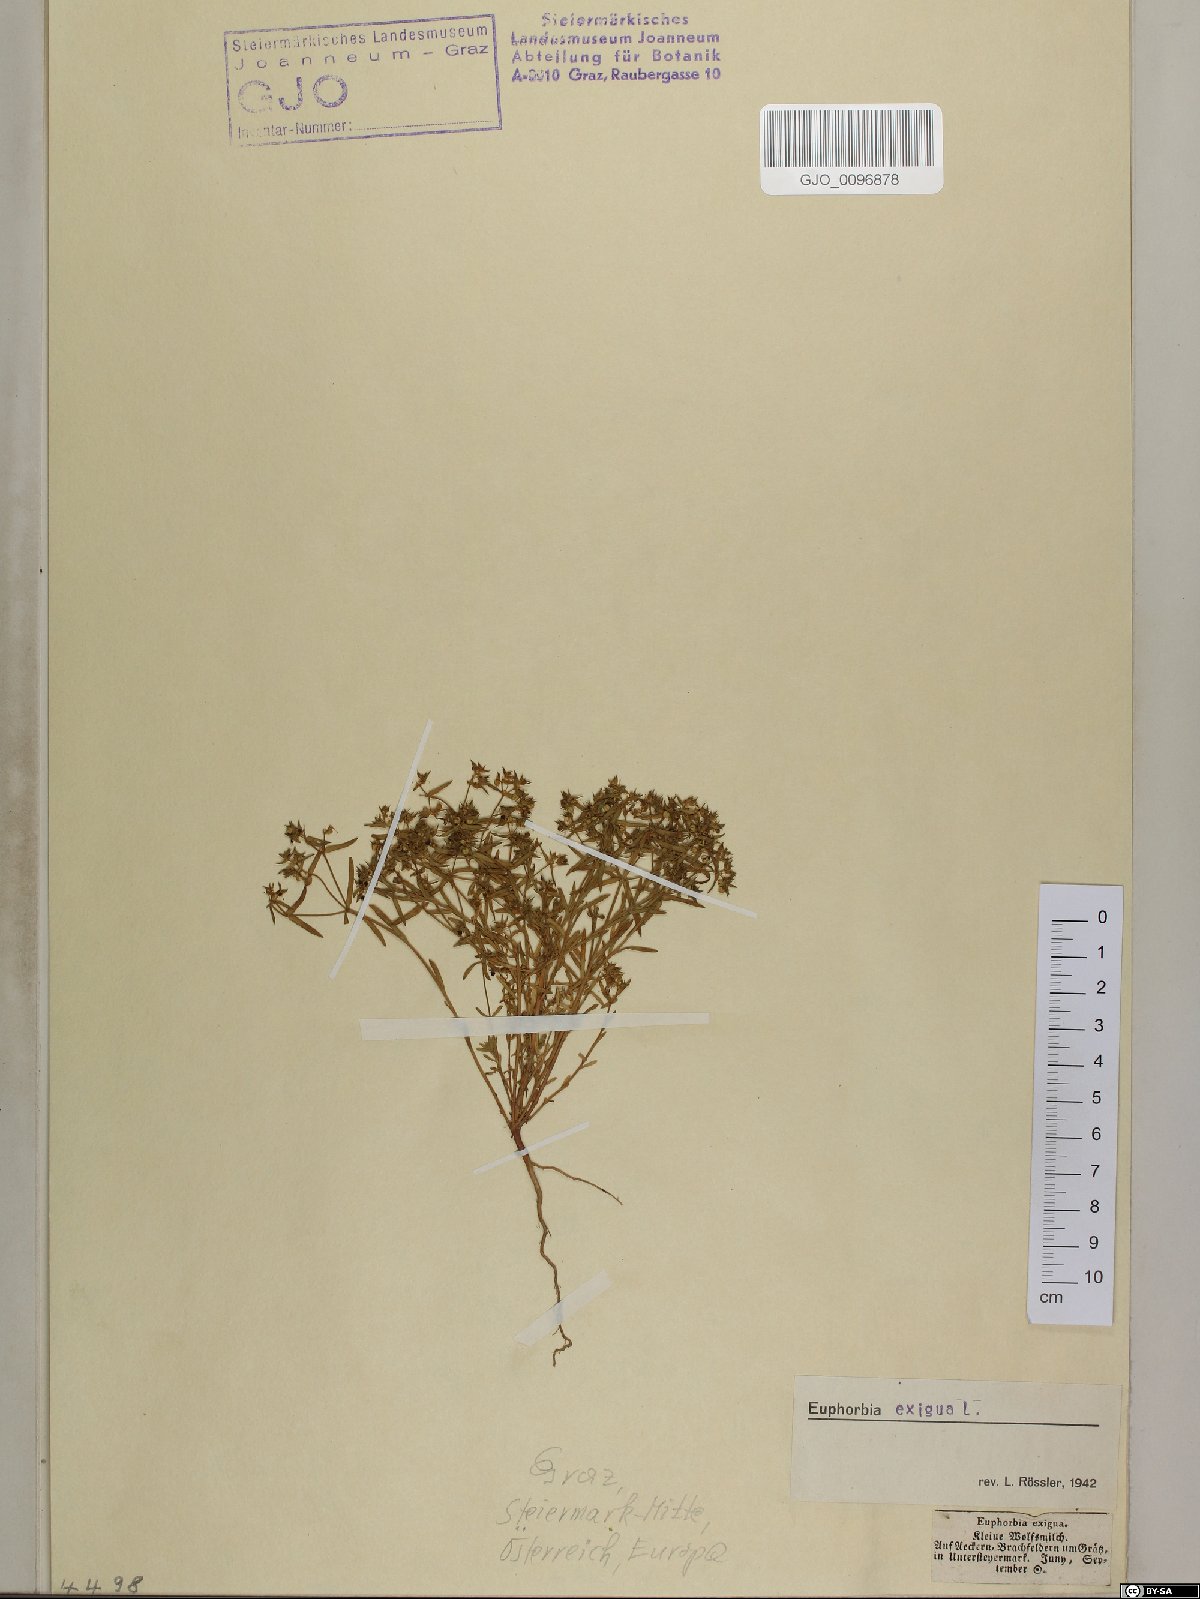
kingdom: Plantae
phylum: Tracheophyta
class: Magnoliopsida
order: Malpighiales
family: Euphorbiaceae
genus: Euphorbia
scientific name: Euphorbia exigua
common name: Dwarf spurge
